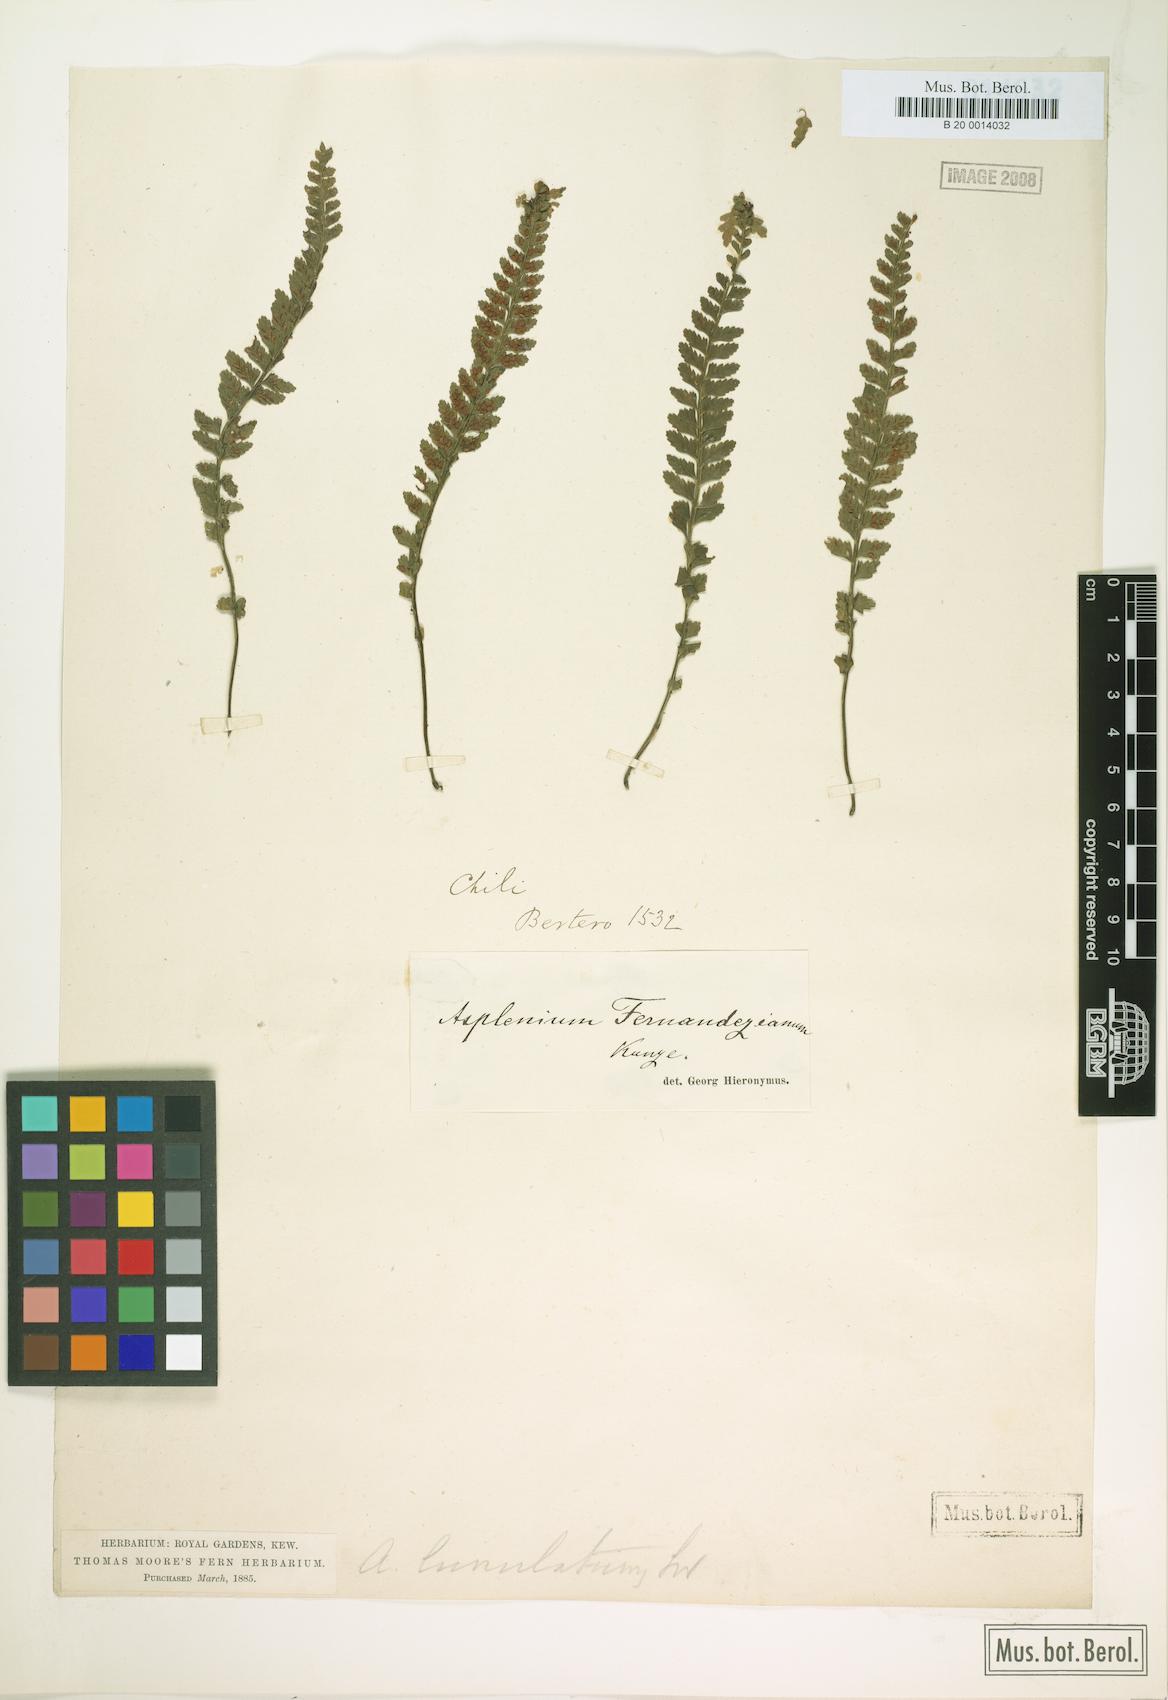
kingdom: Plantae
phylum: Tracheophyta
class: Polypodiopsida
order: Polypodiales
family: Aspleniaceae
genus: Asplenium
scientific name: Asplenium stellatum
